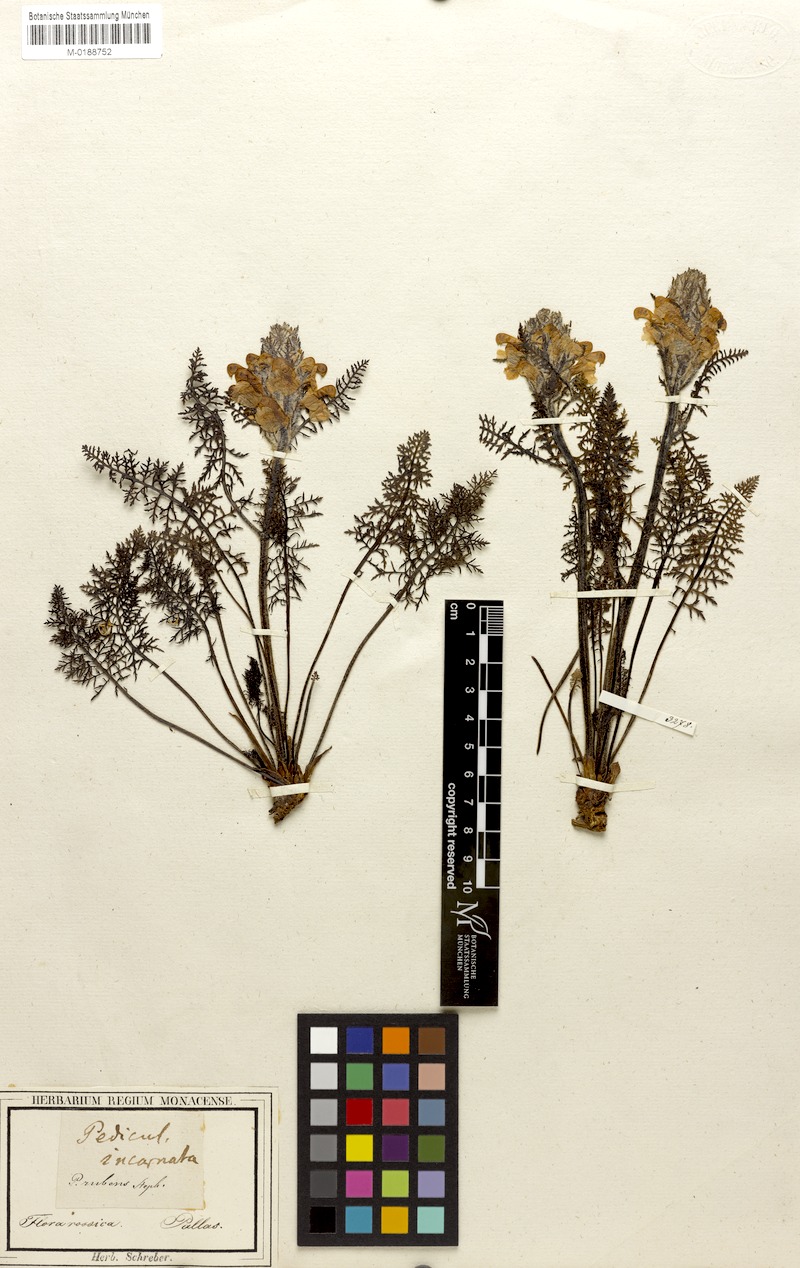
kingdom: Plantae
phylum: Tracheophyta
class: Magnoliopsida
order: Lamiales
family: Orobanchaceae
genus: Pedicularis
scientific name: Pedicularis rubens
